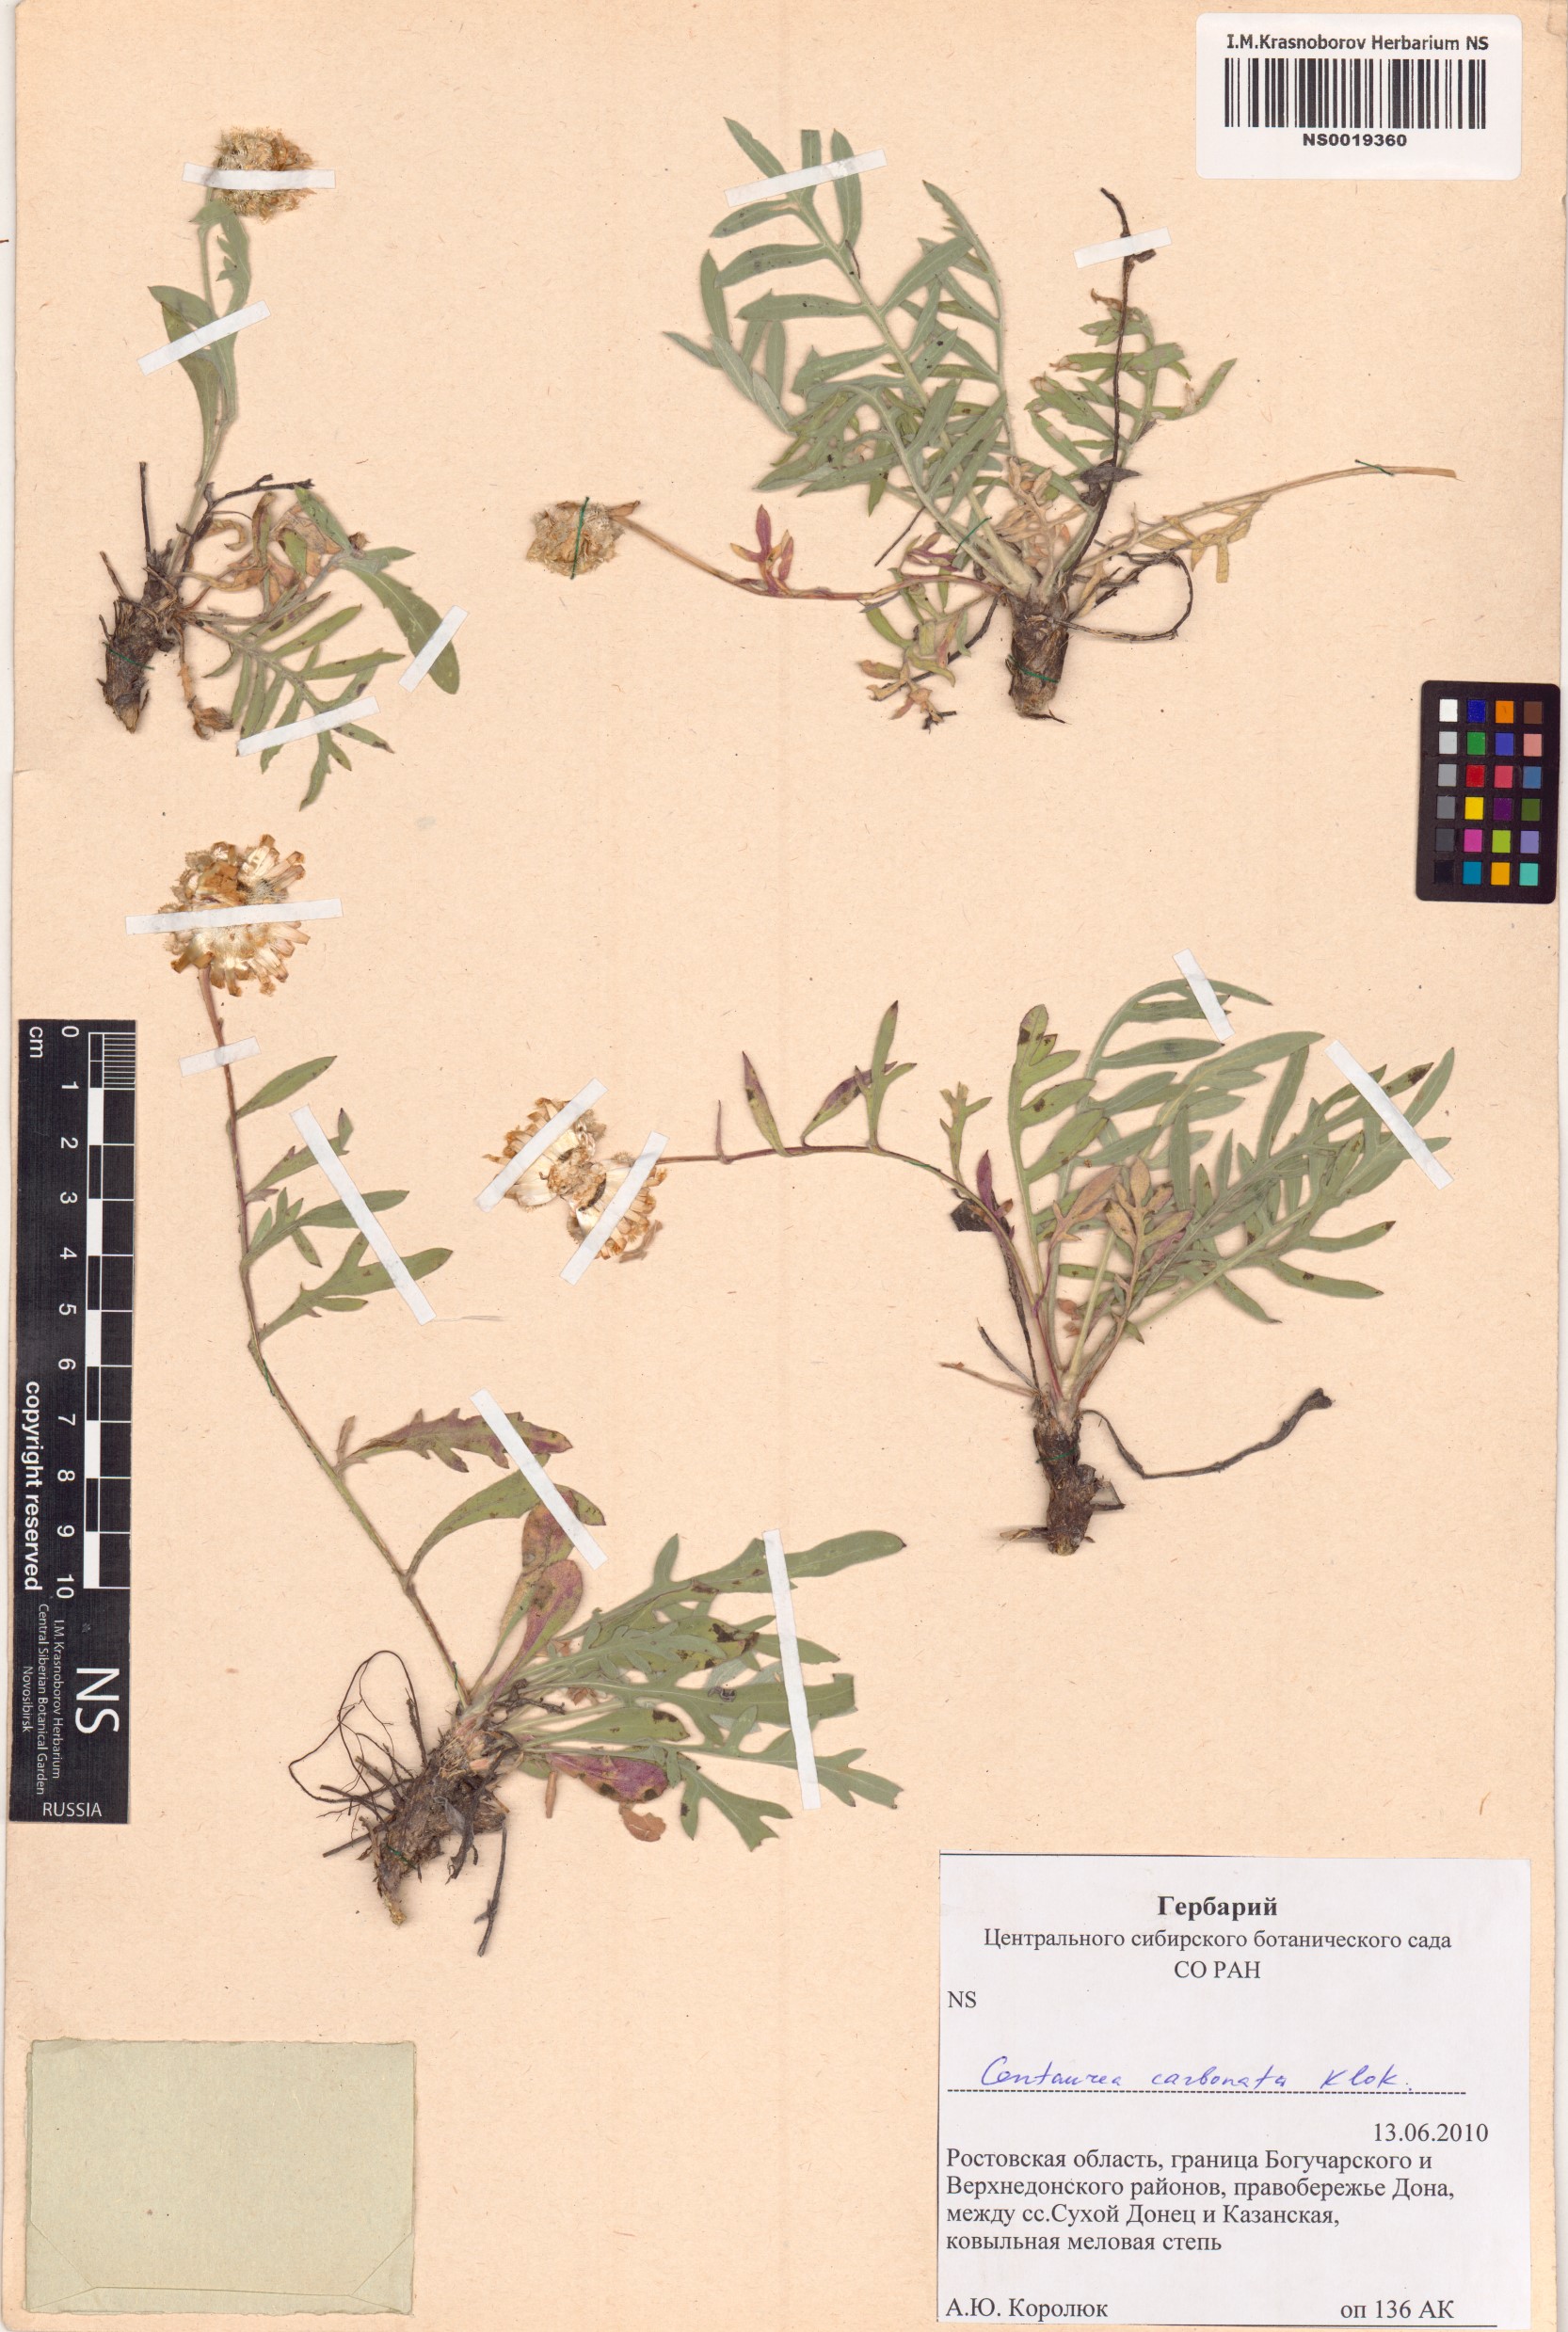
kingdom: Plantae
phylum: Tracheophyta
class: Magnoliopsida
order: Asterales
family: Asteraceae
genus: Psephellus
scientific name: Psephellus carbonatus
